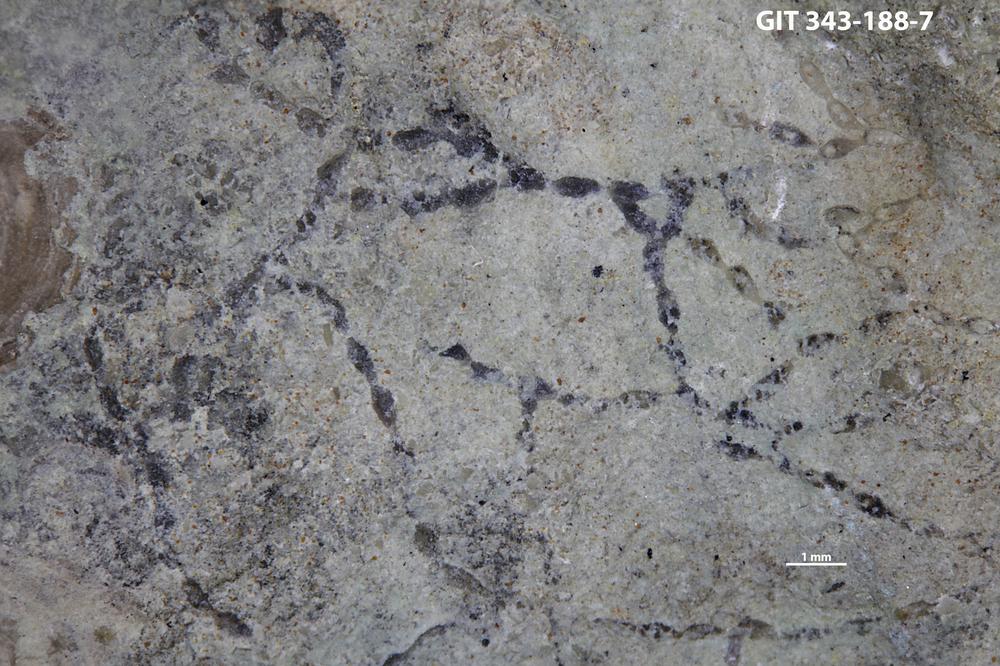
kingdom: Animalia
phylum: Bryozoa
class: Stenolaemata
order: Cyclostomatida
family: Corynotrypidae
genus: Corynotrypa
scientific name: Corynotrypa
